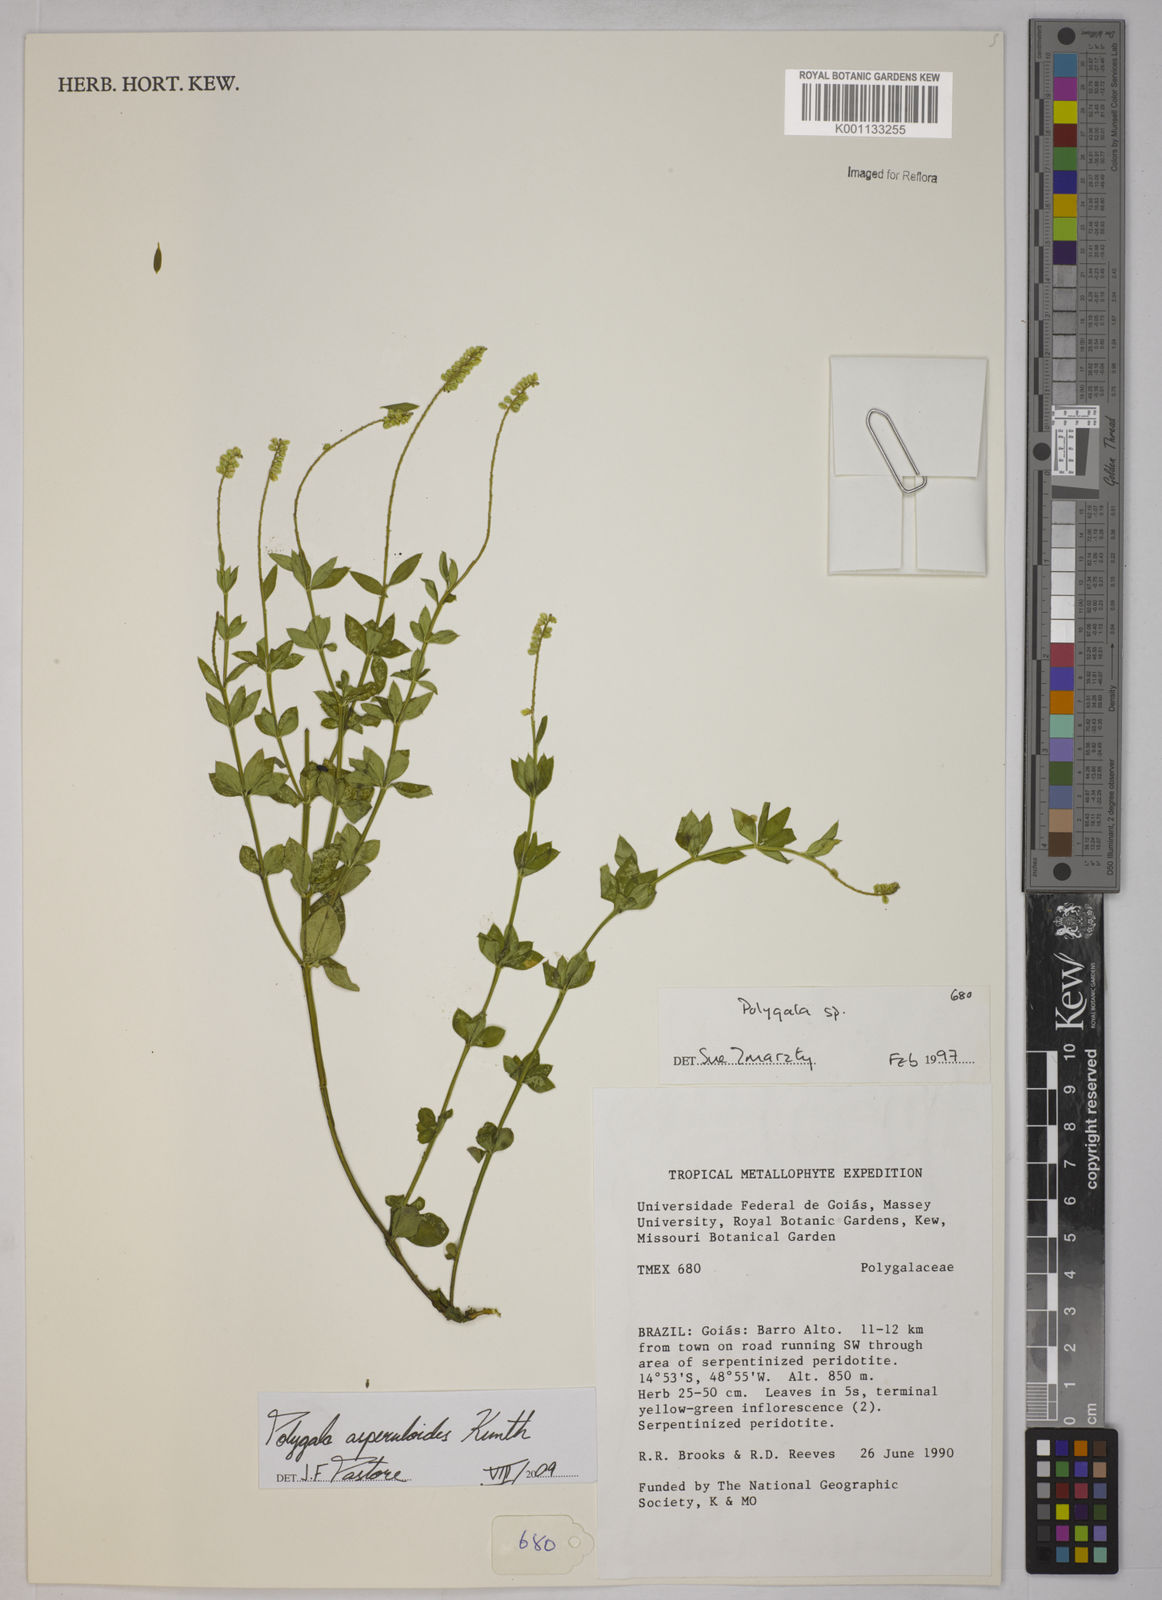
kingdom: Plantae
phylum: Tracheophyta
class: Magnoliopsida
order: Fabales
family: Polygalaceae
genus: Polygala
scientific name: Polygala asperuloides
